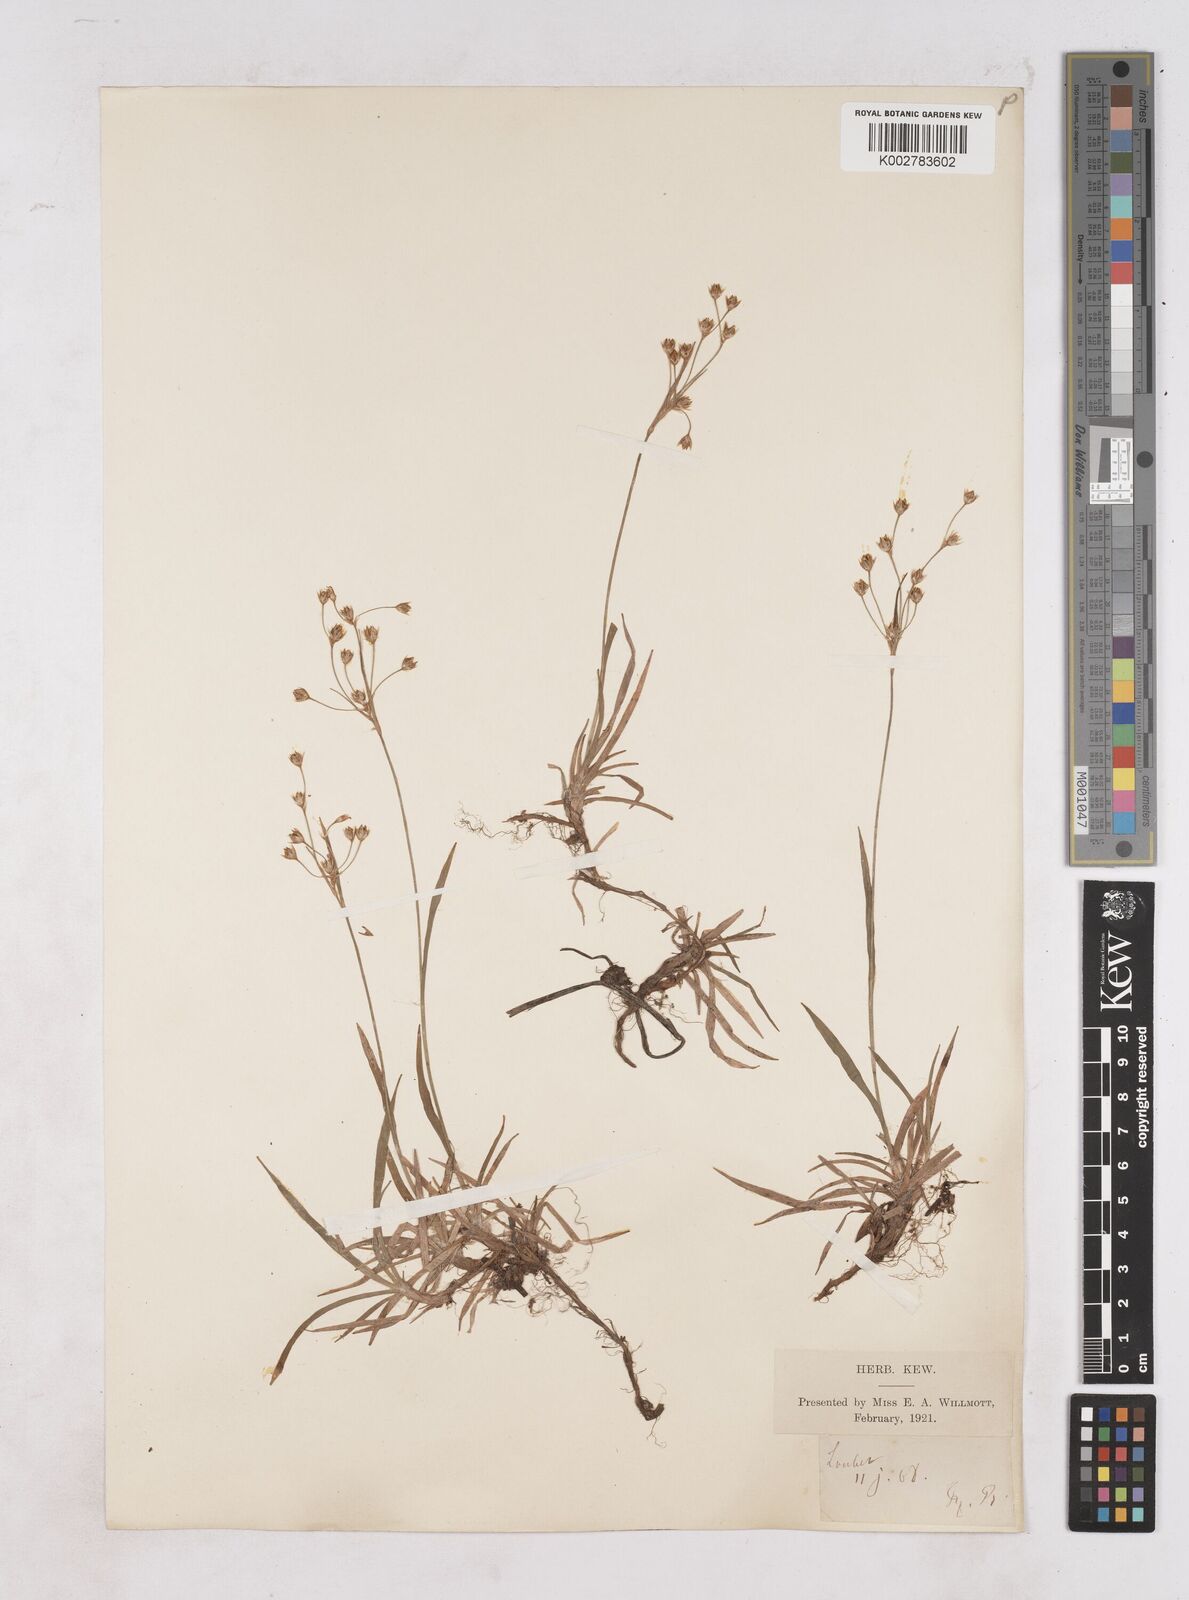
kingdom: Plantae
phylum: Tracheophyta
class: Liliopsida
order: Poales
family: Juncaceae
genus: Luzula
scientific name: Luzula
